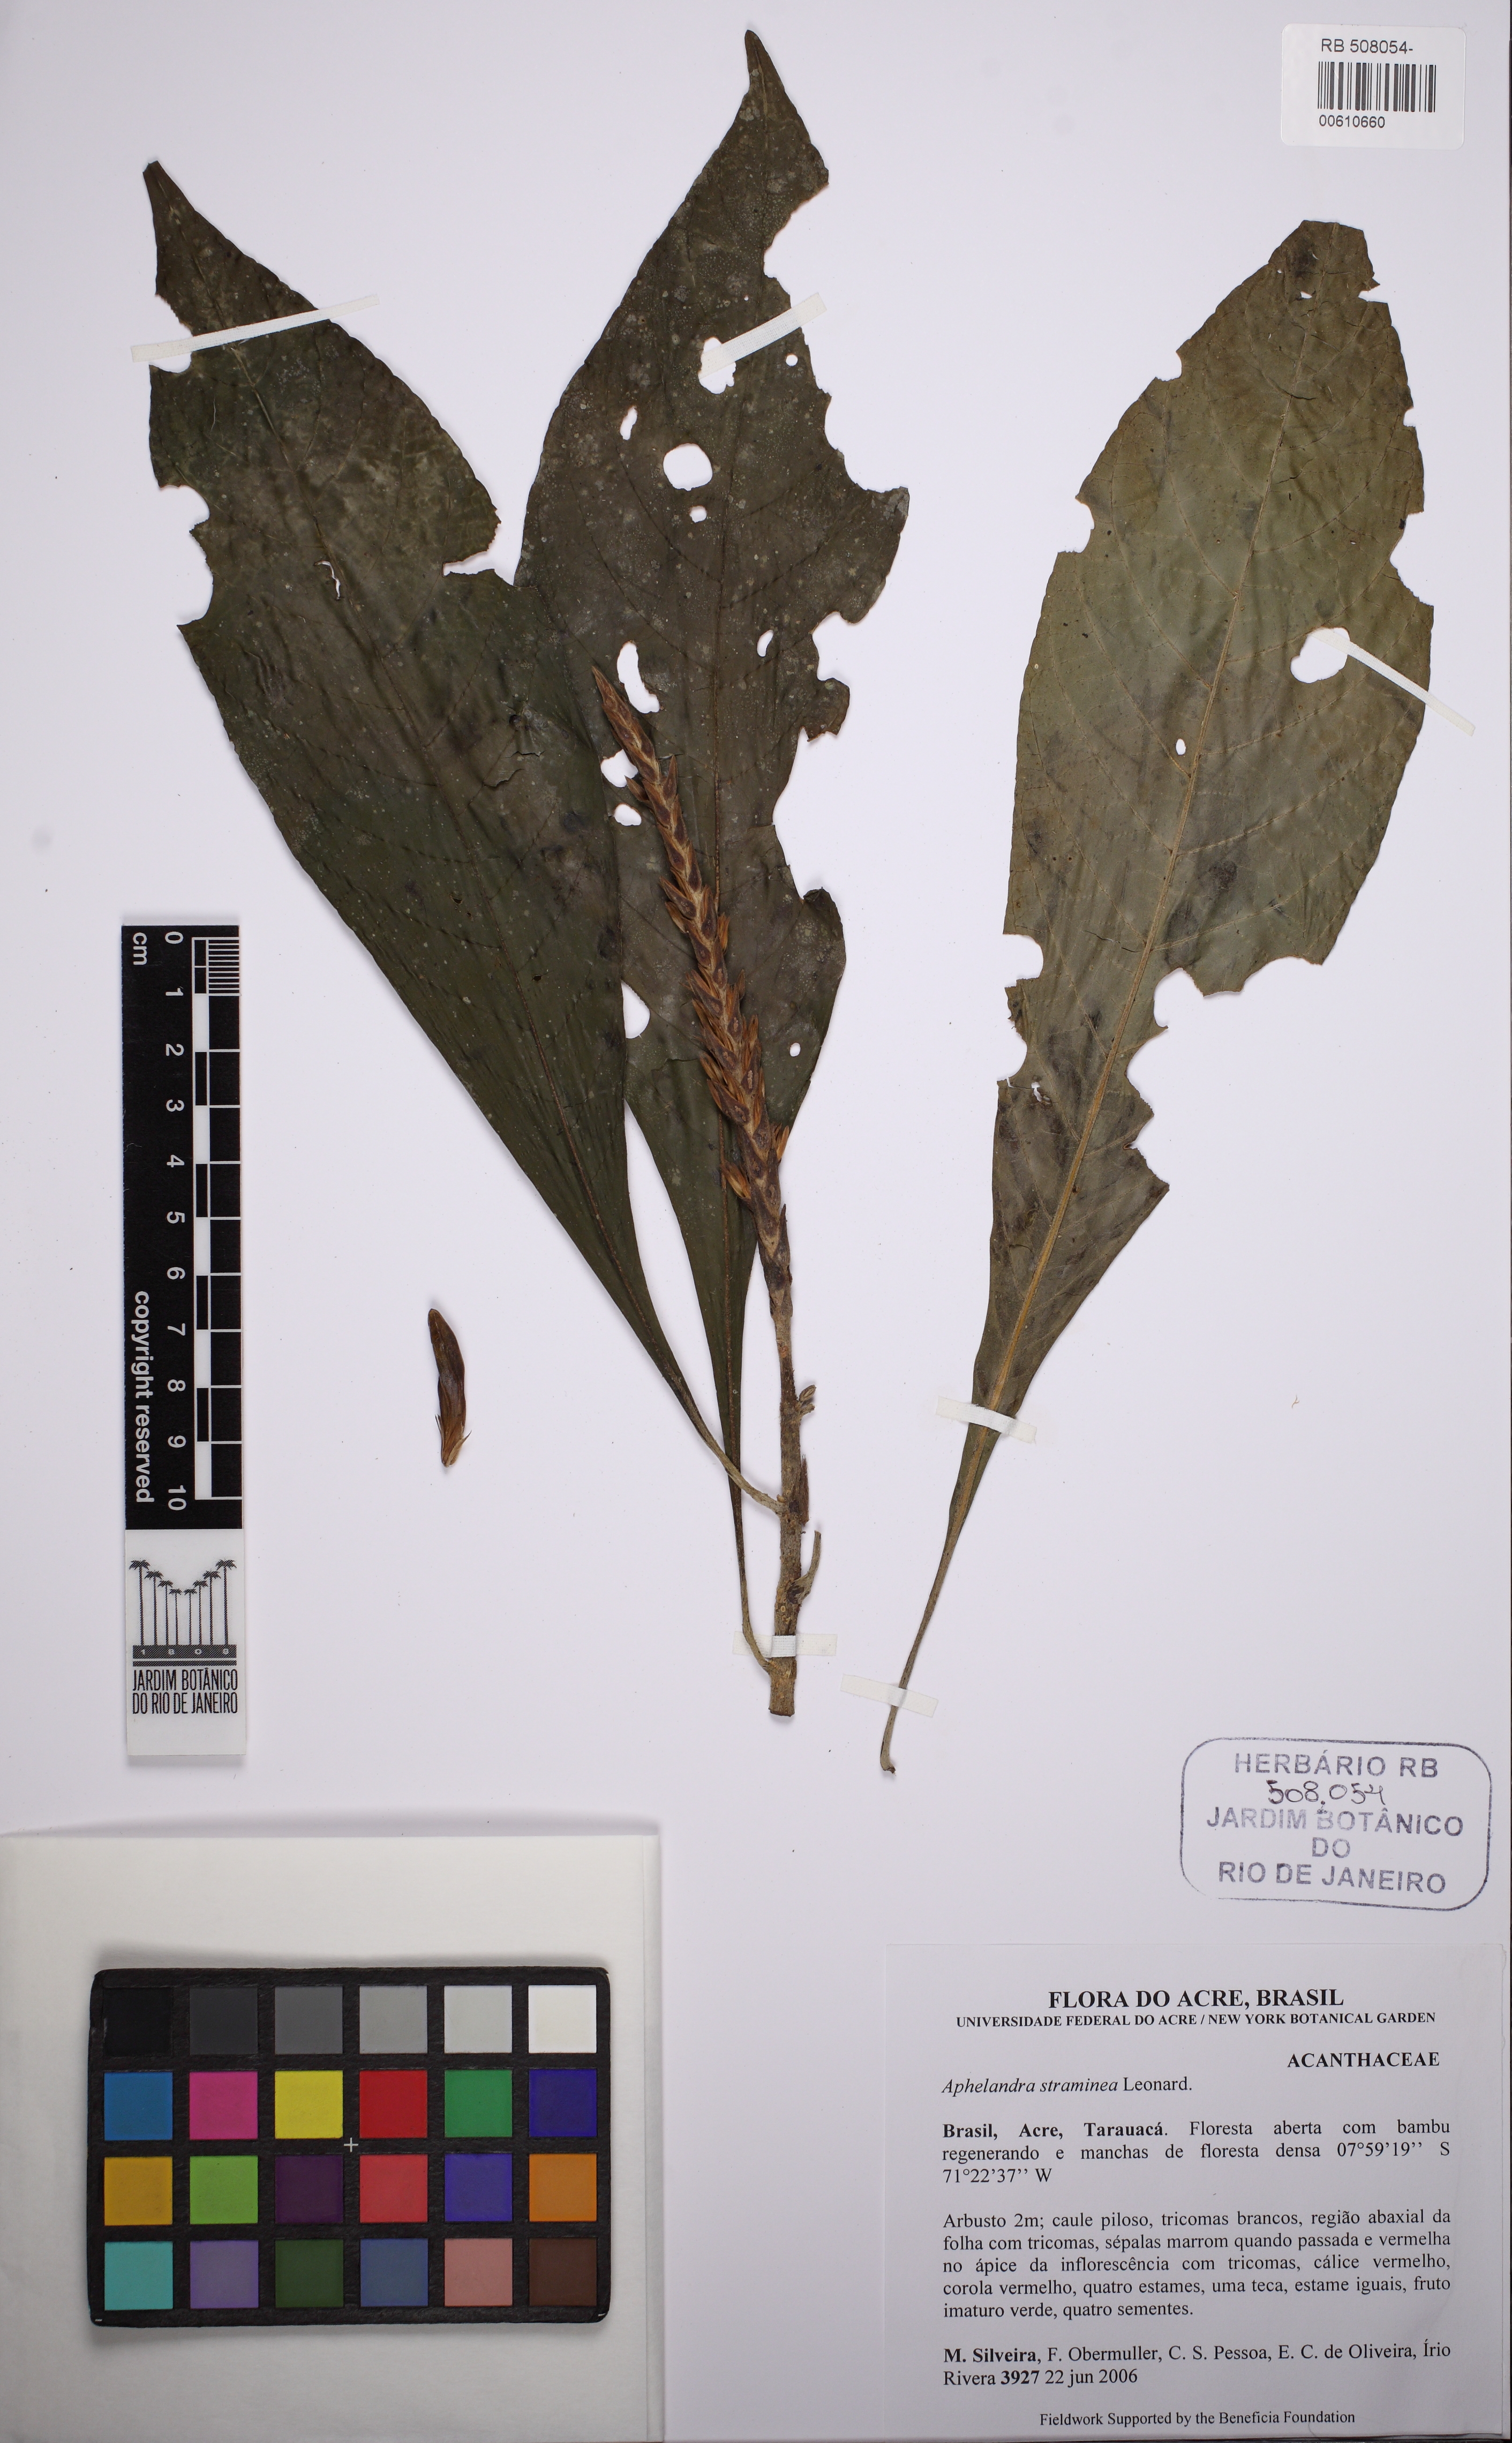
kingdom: Plantae
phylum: Tracheophyta
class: Magnoliopsida
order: Lamiales
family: Acanthaceae
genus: Aphelandra
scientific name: Aphelandra straminea
